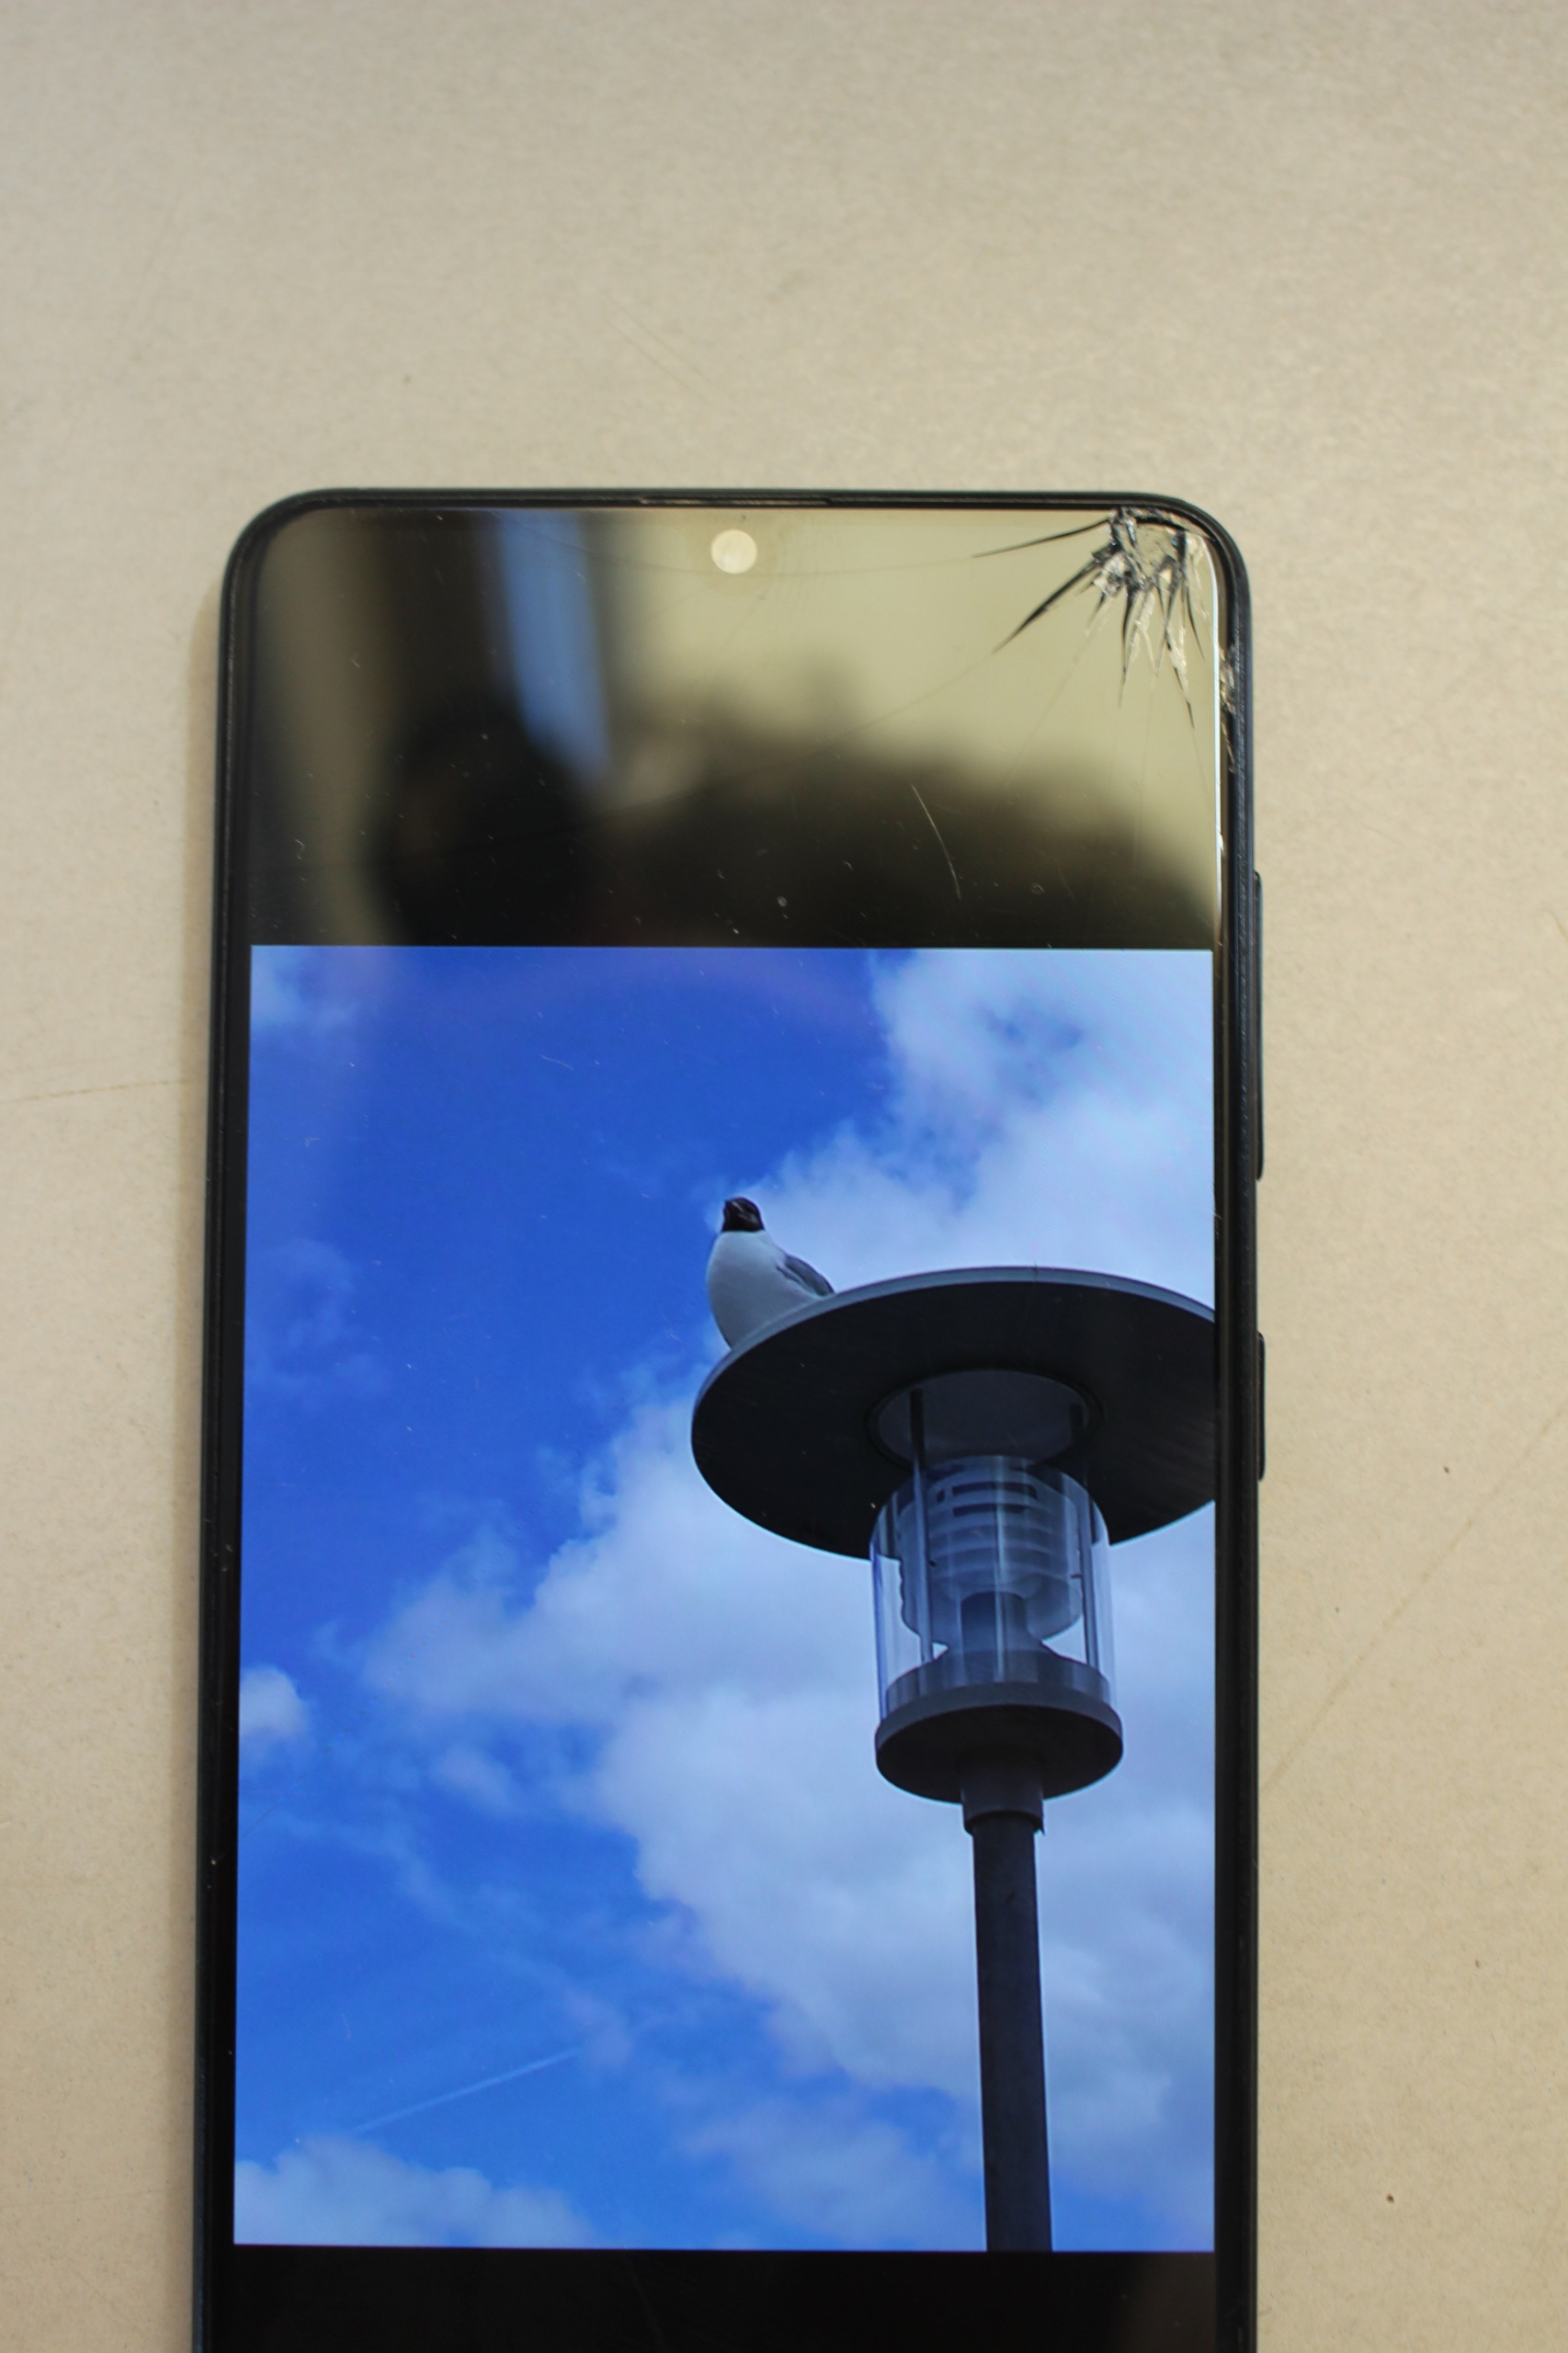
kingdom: Animalia
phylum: Chordata
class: Aves
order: Charadriiformes
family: Laridae
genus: Chroicocephalus
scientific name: Chroicocephalus ridibundus
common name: Hættemåge
